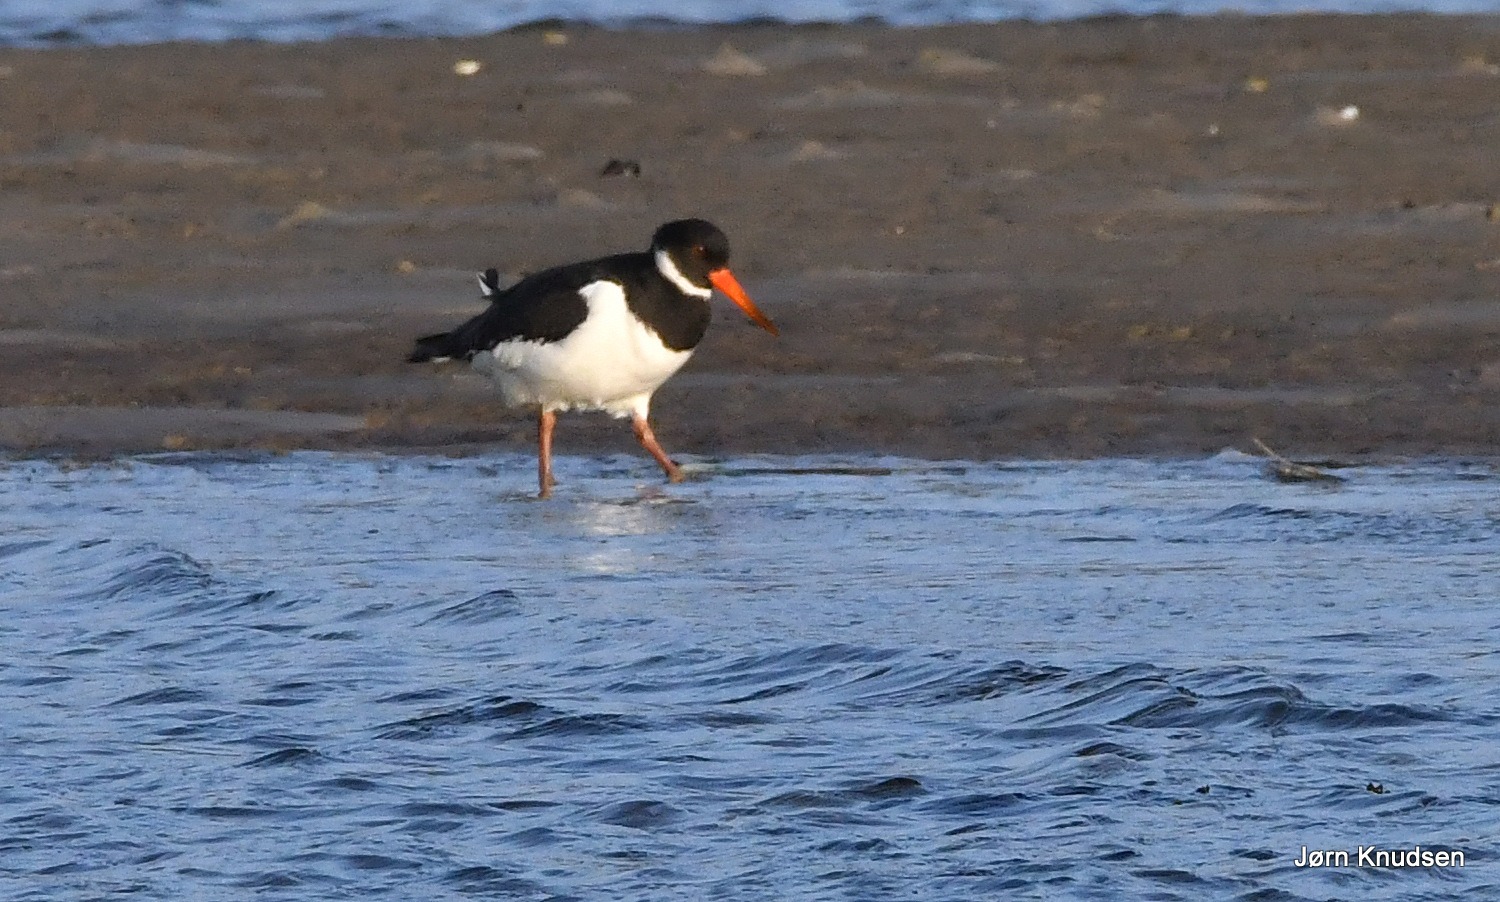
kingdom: Animalia
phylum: Chordata
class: Aves
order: Charadriiformes
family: Haematopodidae
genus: Haematopus
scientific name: Haematopus ostralegus
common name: Strandskade
